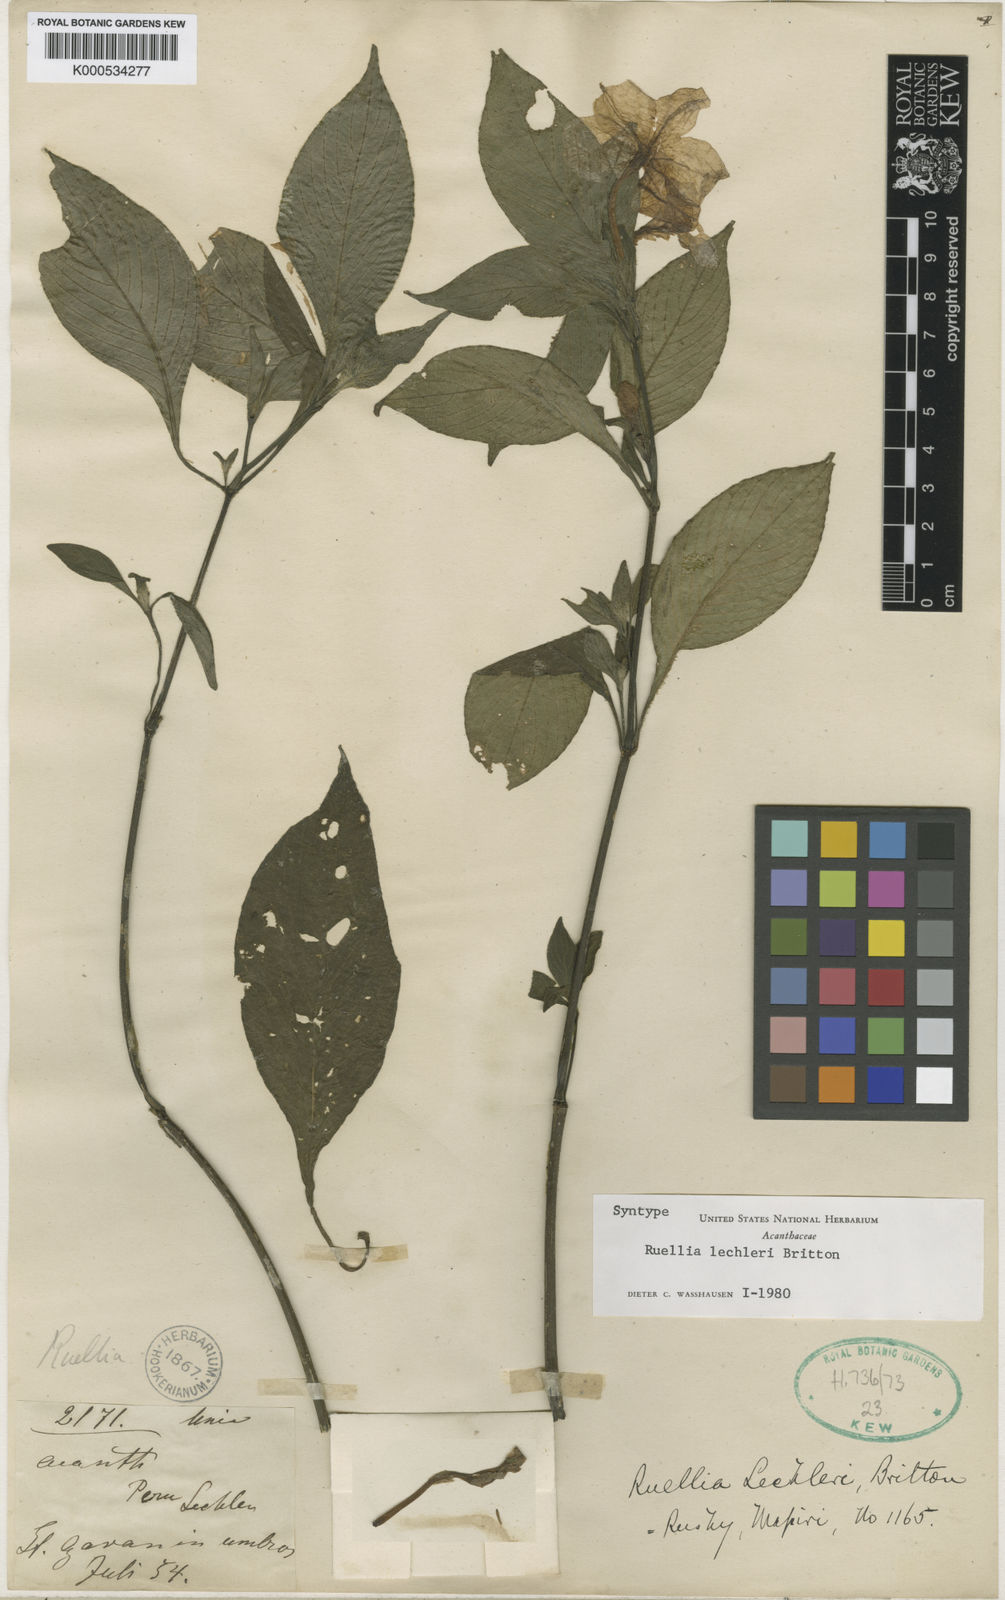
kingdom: Plantae
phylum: Tracheophyta
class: Magnoliopsida
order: Lamiales
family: Acanthaceae
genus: Ruellia
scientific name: Ruellia jussieuoides
